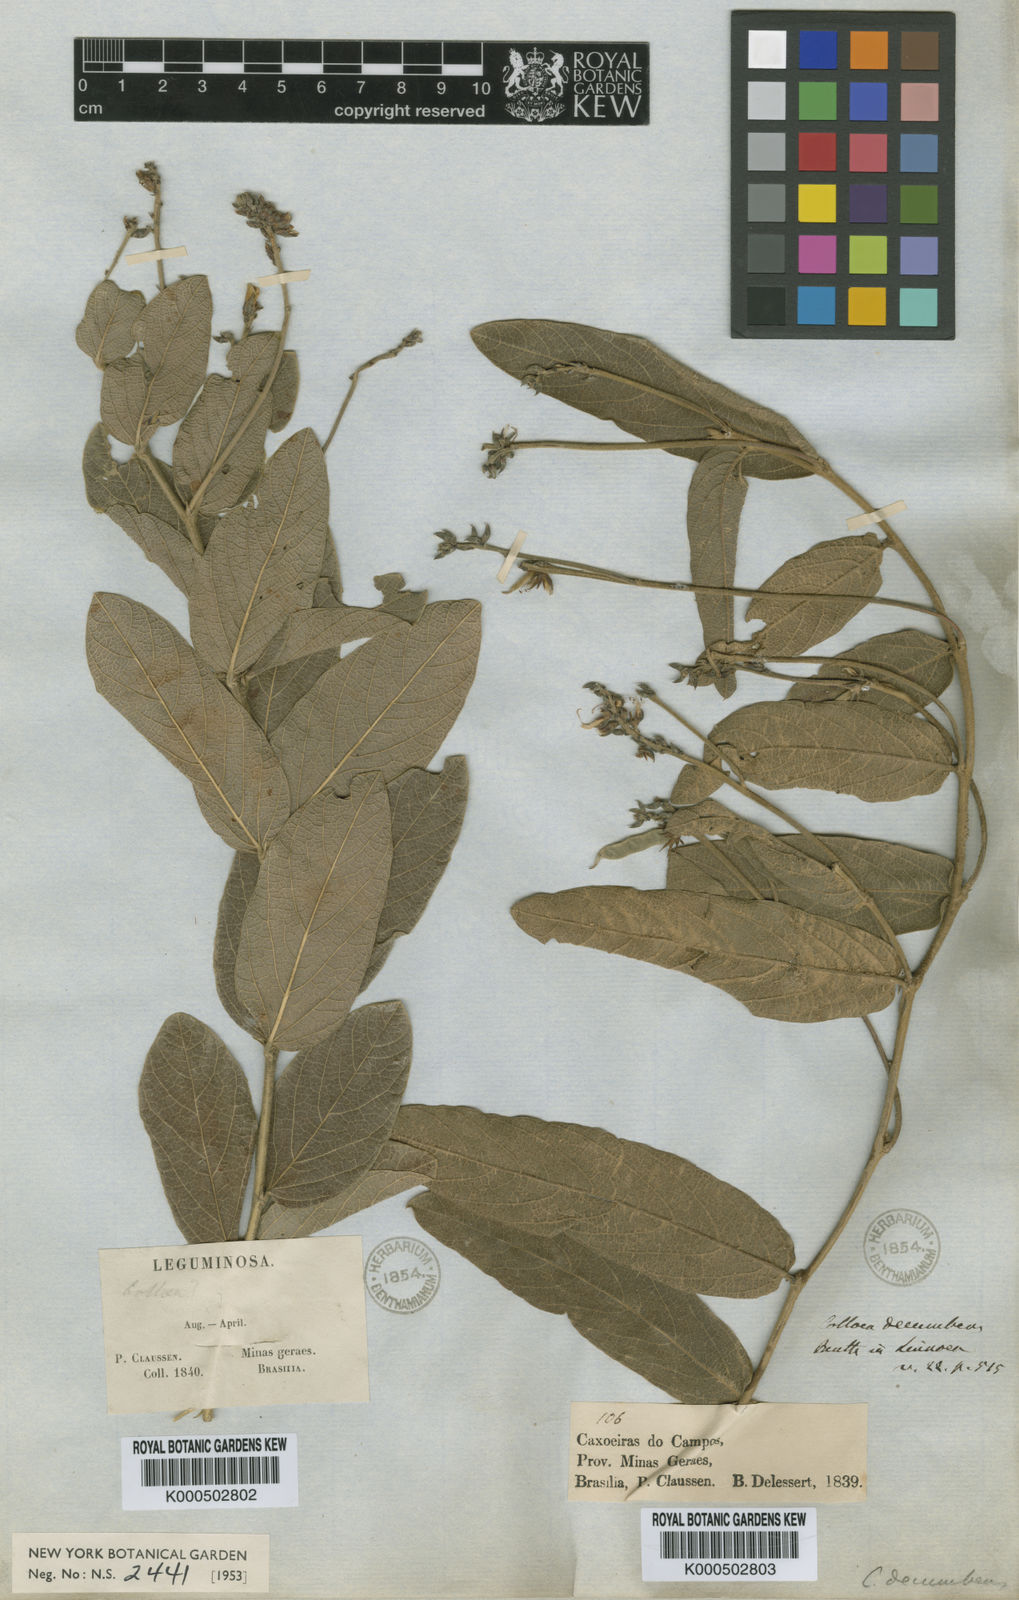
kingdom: Plantae
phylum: Tracheophyta
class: Magnoliopsida
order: Fabales
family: Fabaceae
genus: Cerradicola
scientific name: Cerradicola decumbens
